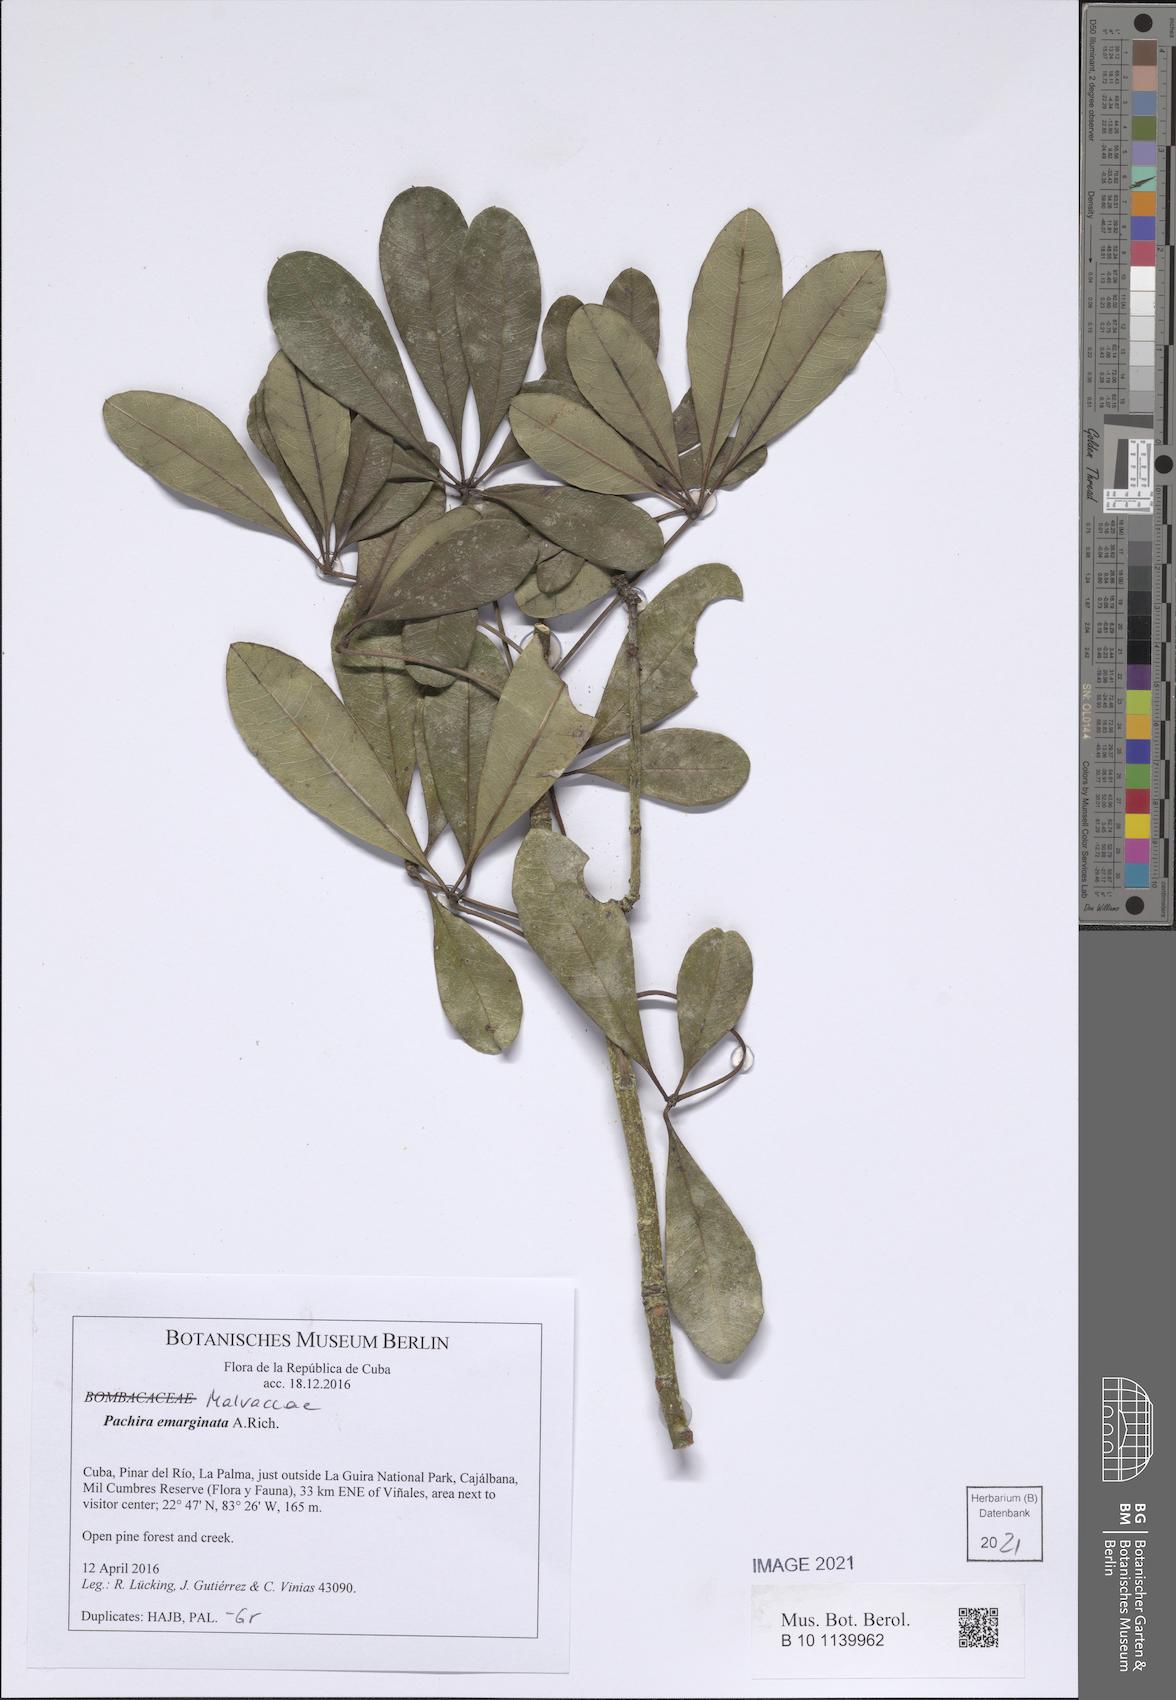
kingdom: Plantae
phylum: Tracheophyta
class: Magnoliopsida
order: Malvales
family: Malvaceae
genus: Pachira
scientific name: Pachira emarginata
